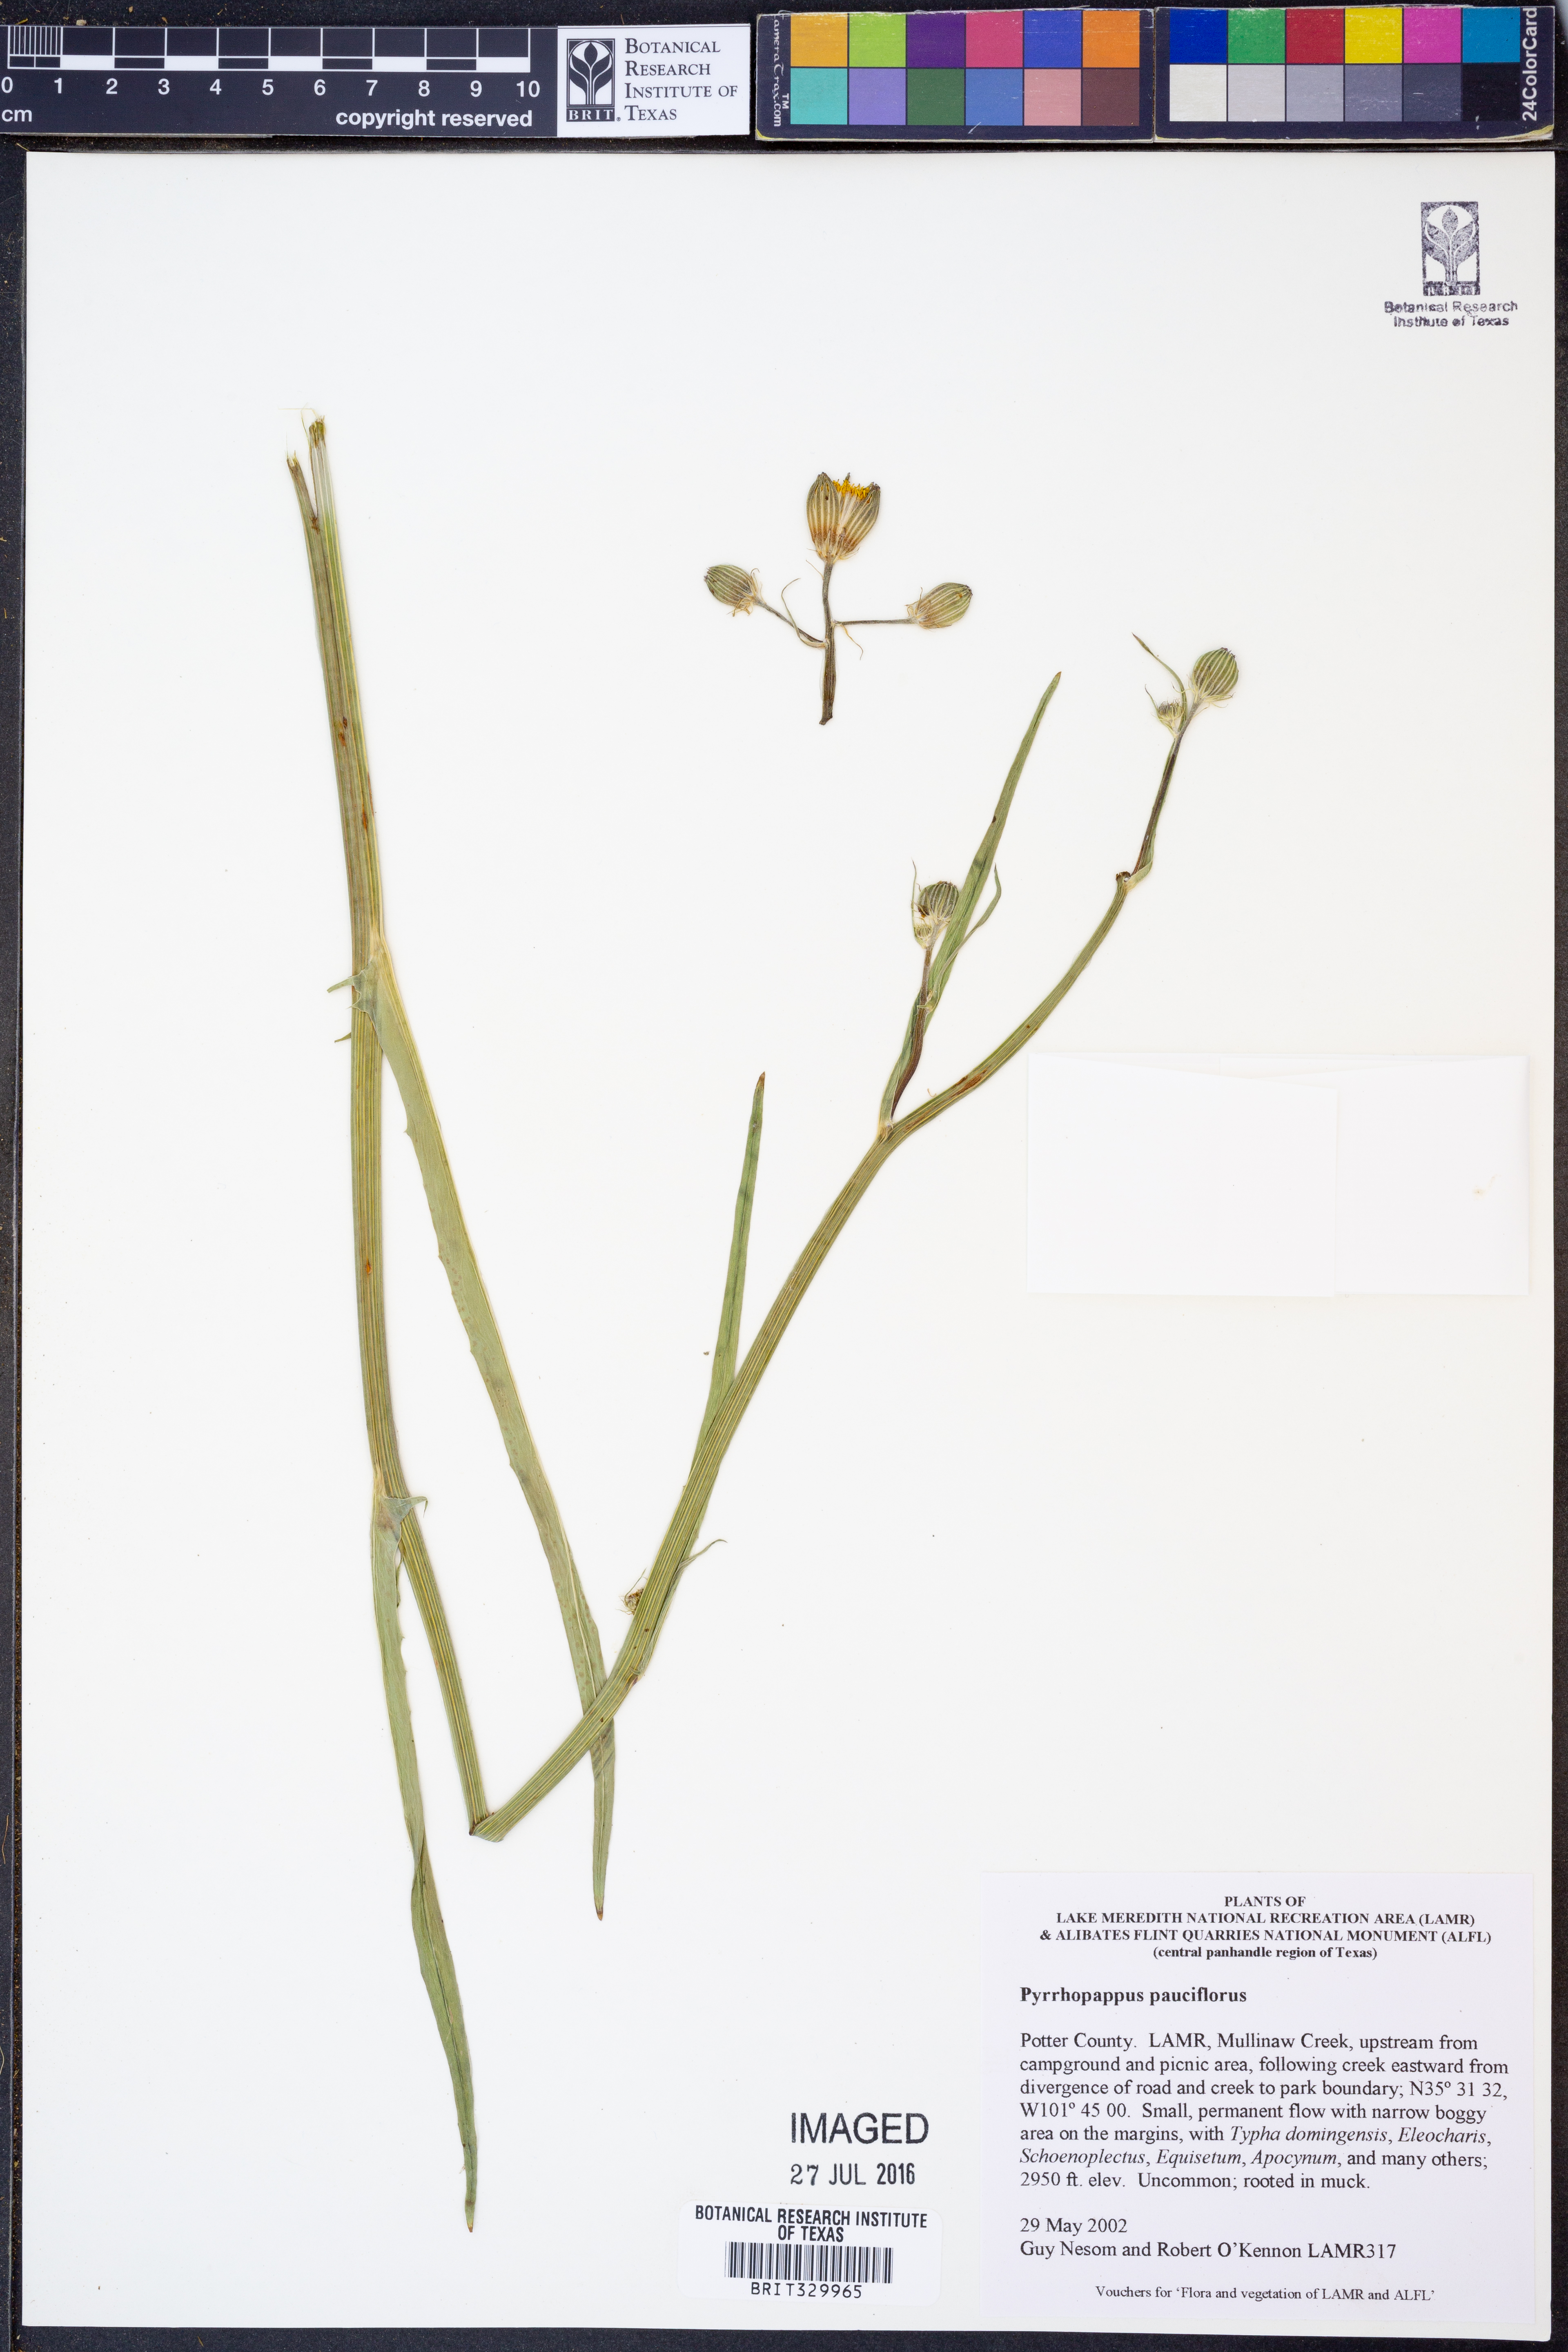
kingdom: Plantae
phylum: Tracheophyta
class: Magnoliopsida
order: Asterales
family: Asteraceae
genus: Pyrrhopappus
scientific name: Pyrrhopappus pauciflorus
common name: Texas false dandelion
